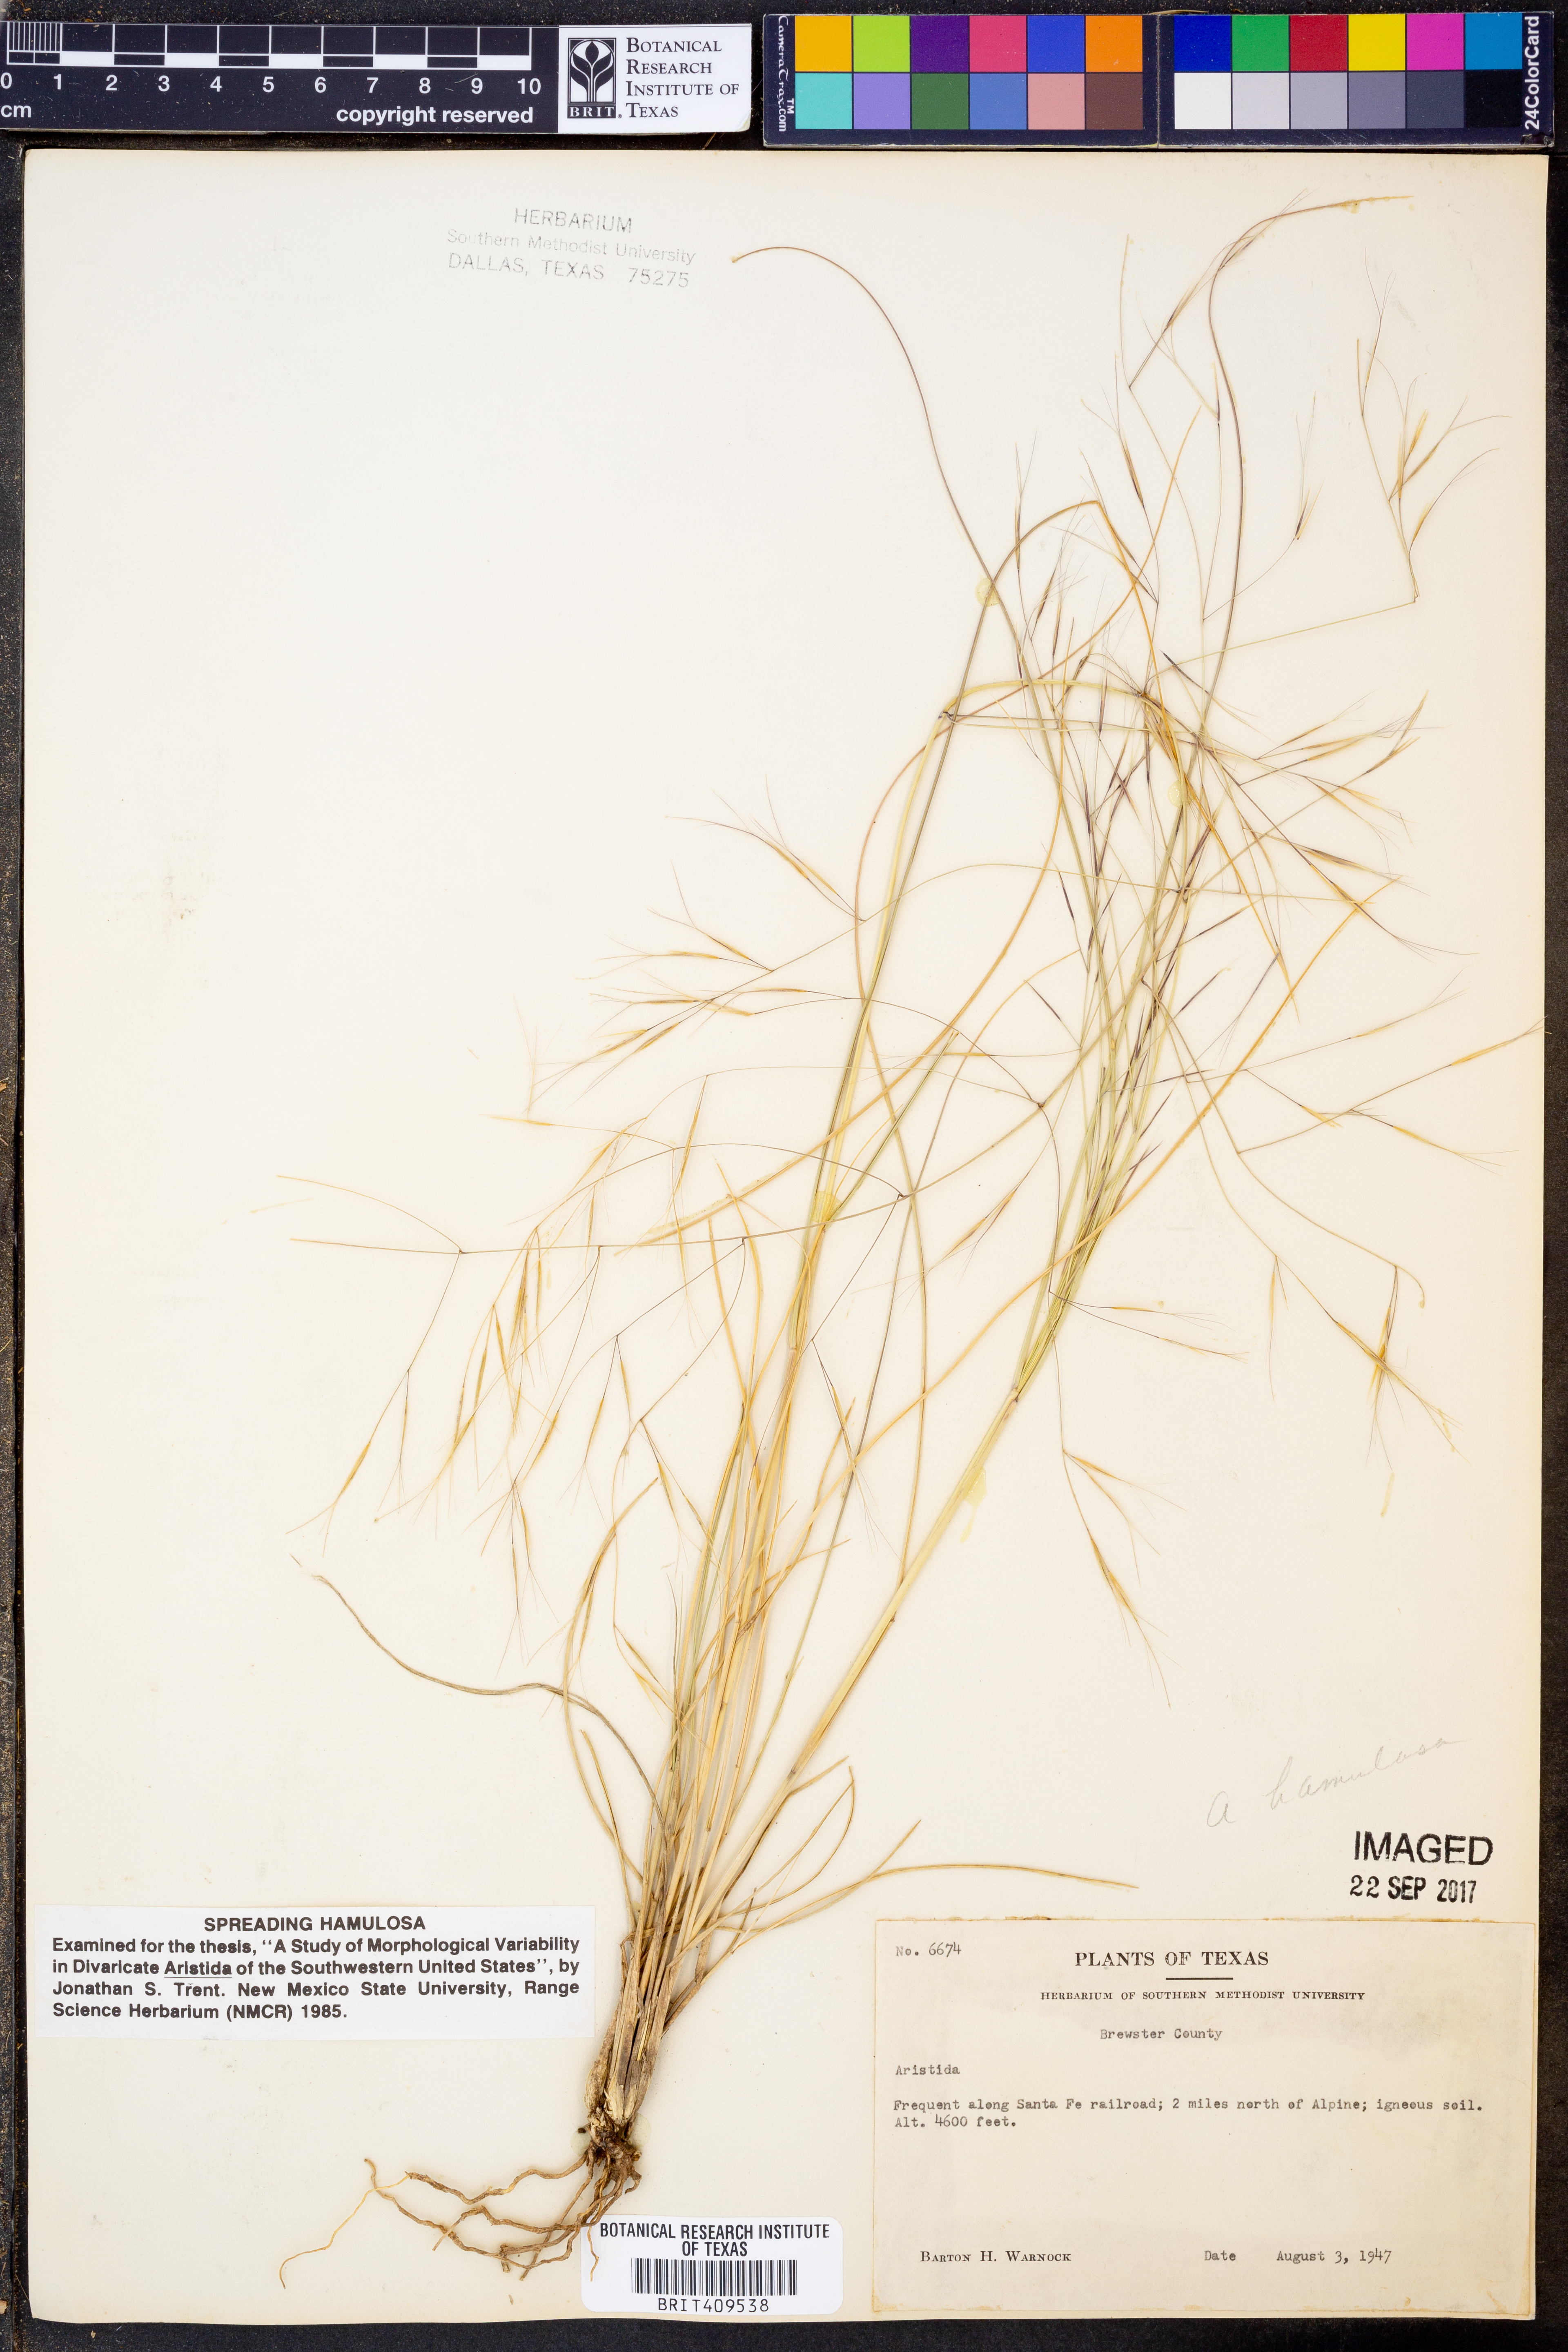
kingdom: Plantae
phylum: Tracheophyta
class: Liliopsida
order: Poales
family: Poaceae
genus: Aristida
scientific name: Aristida
